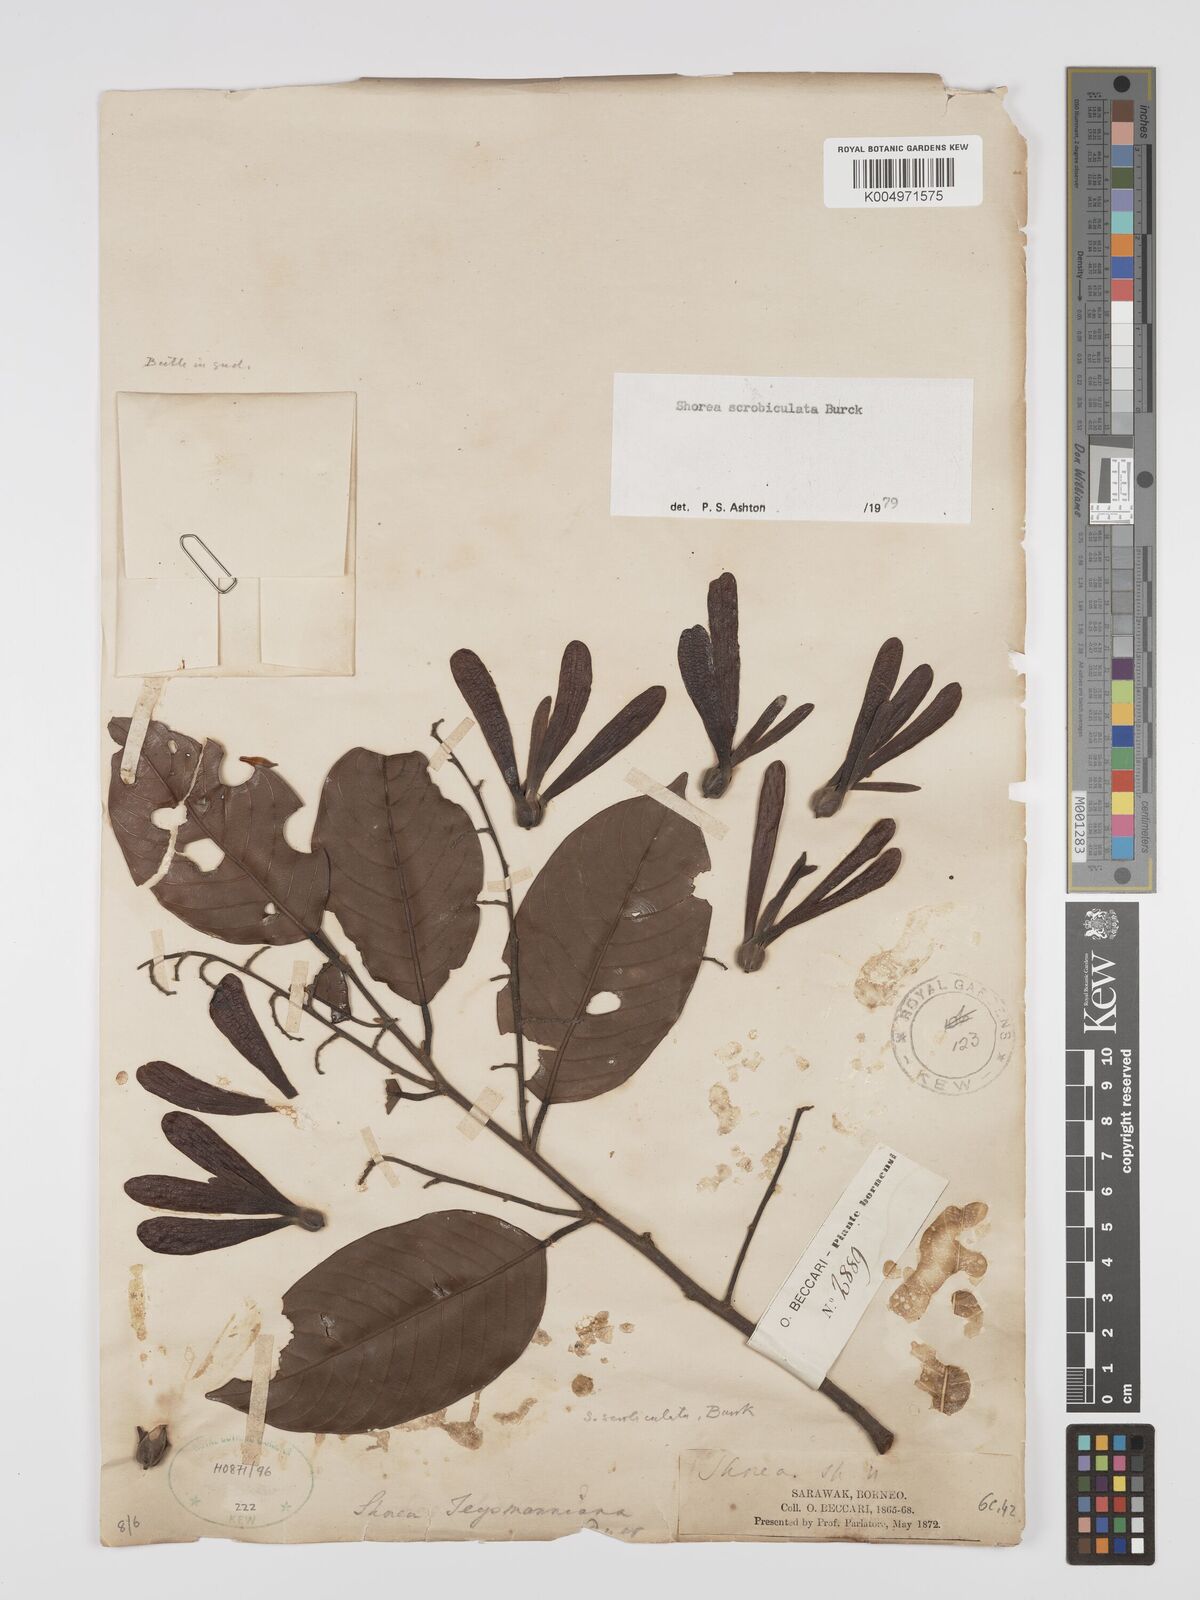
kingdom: Plantae
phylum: Tracheophyta
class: Magnoliopsida
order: Malvales
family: Dipterocarpaceae
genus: Shorea
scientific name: Shorea scrobiculata
